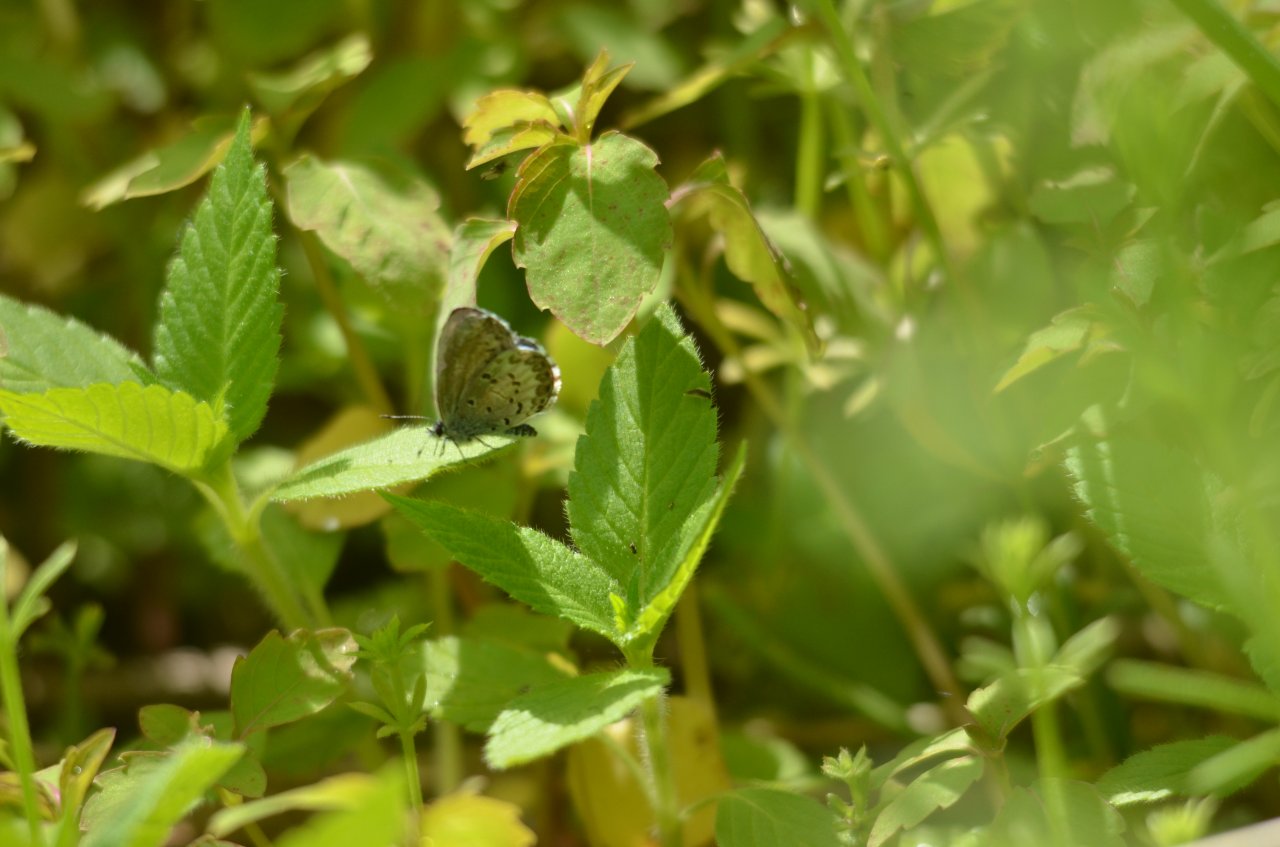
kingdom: Animalia
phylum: Arthropoda
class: Insecta
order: Lepidoptera
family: Lycaenidae
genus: Celastrina
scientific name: Celastrina
